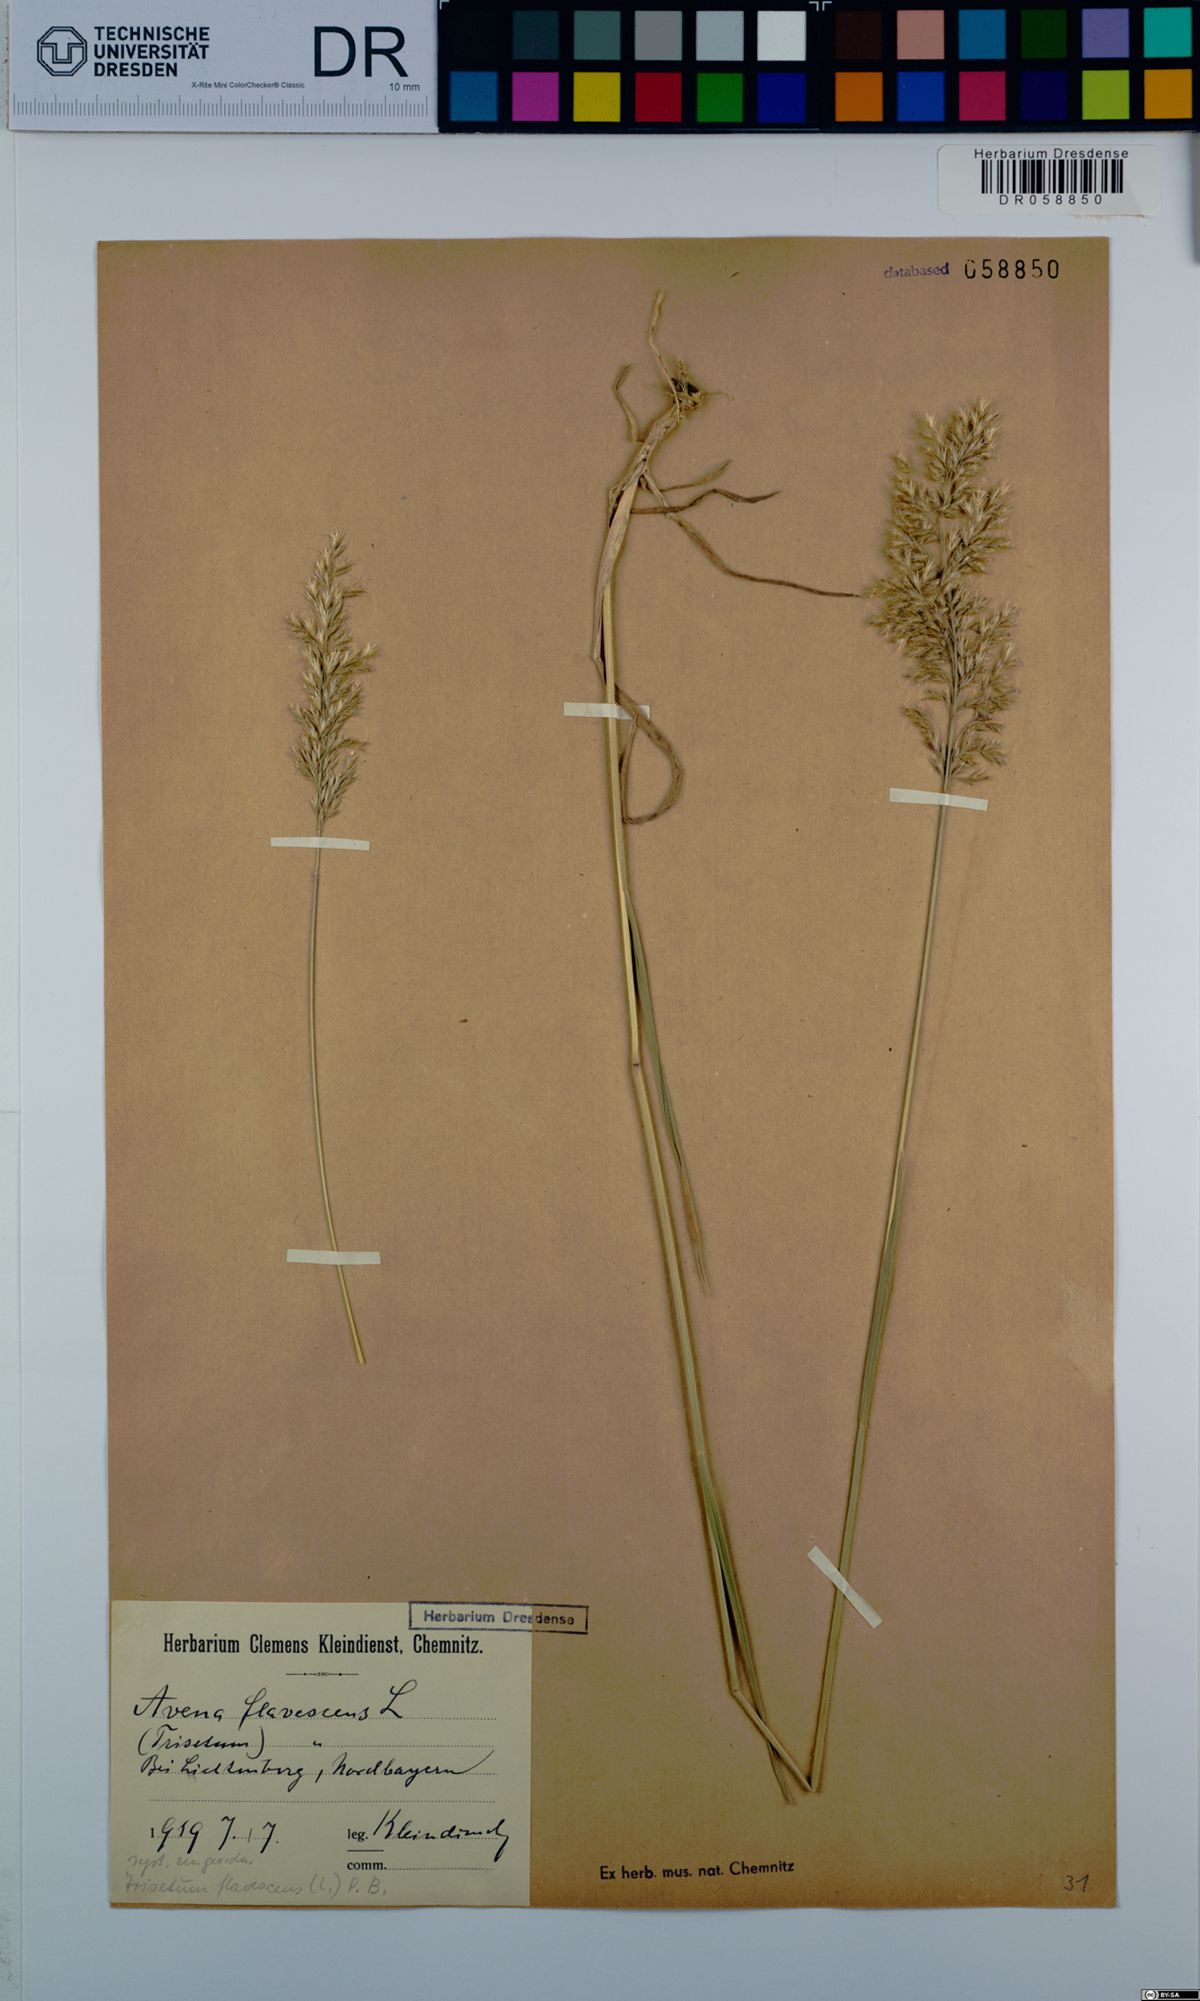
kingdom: Plantae
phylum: Tracheophyta
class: Liliopsida
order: Poales
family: Poaceae
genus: Trisetum
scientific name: Trisetum flavescens
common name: Yellow oat-grass
